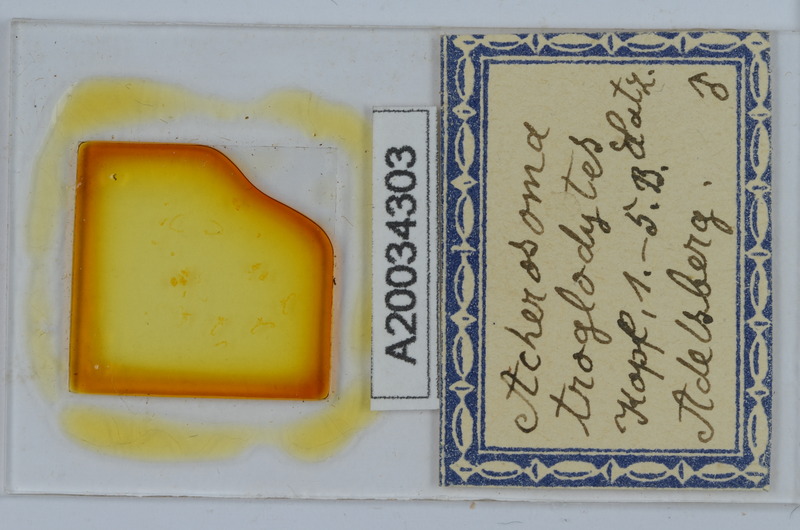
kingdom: Animalia
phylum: Arthropoda
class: Diplopoda
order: Chordeumatida
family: Anthogonidae
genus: Haasia
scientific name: Haasia troglodytes
